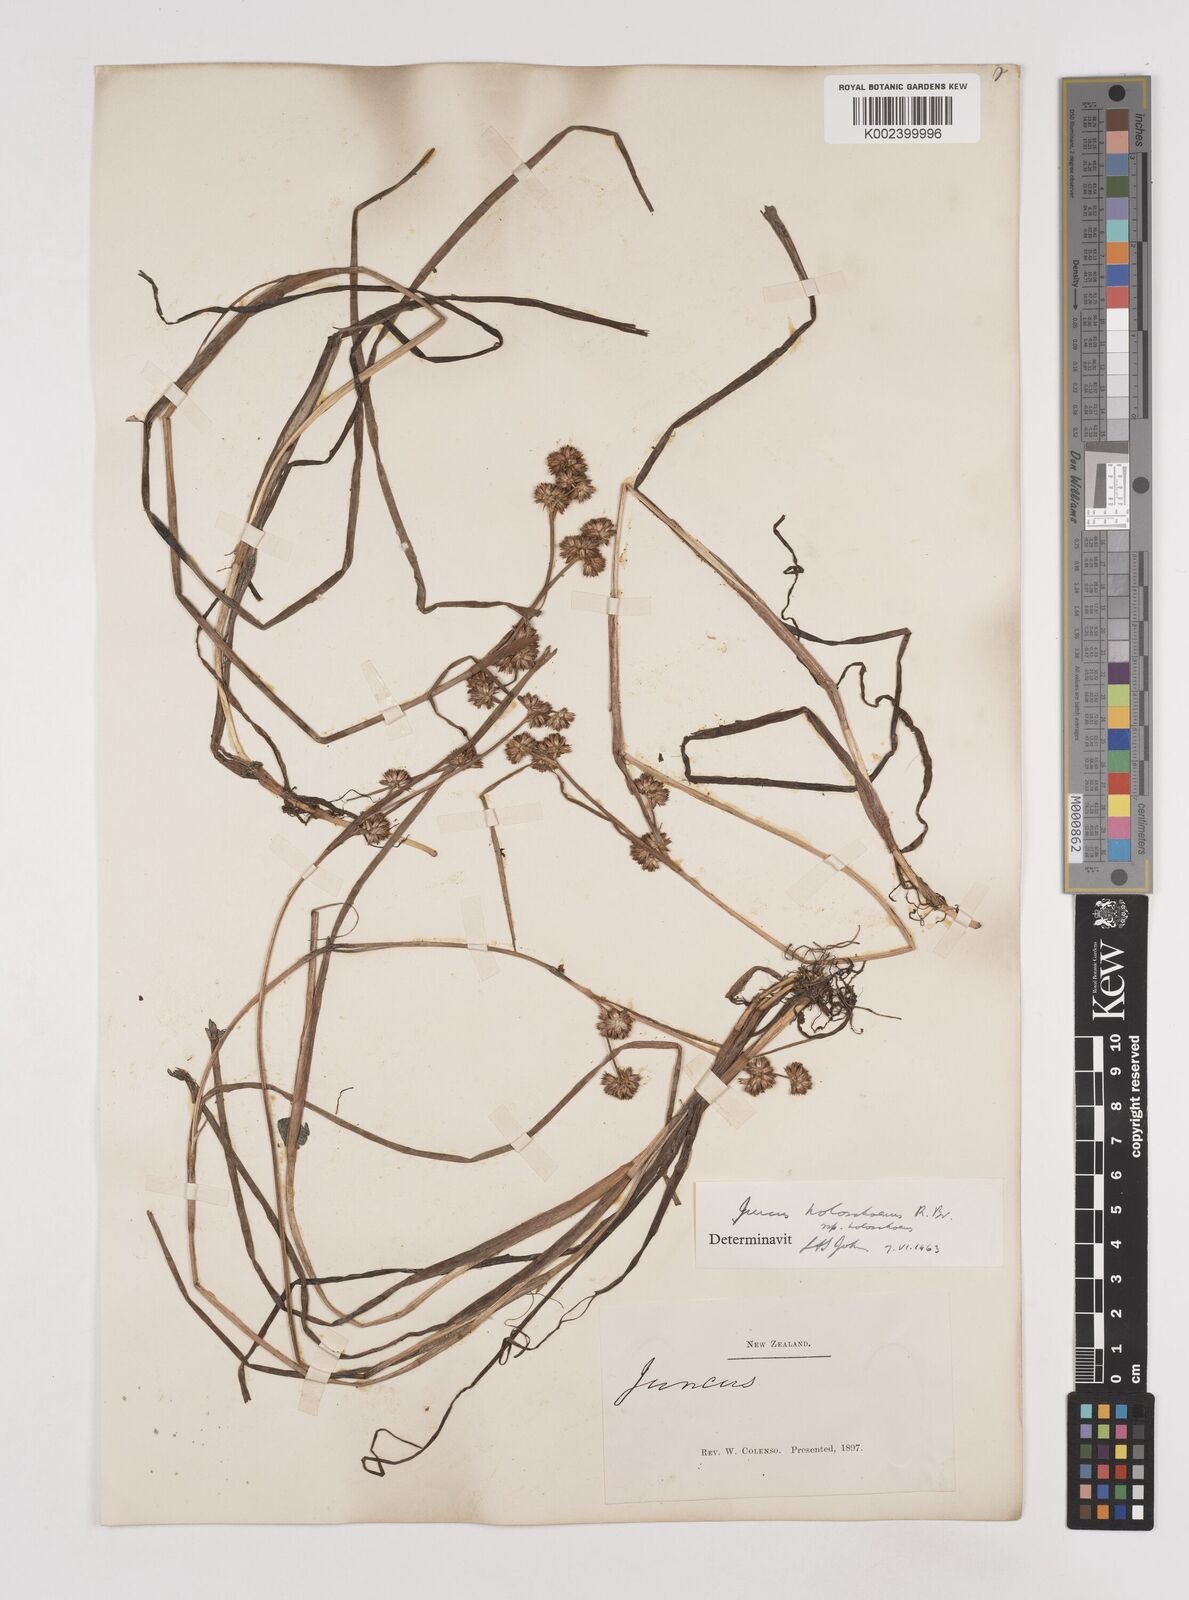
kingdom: Plantae
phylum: Tracheophyta
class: Liliopsida
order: Poales
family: Juncaceae
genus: Juncus
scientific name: Juncus holoschoenus
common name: Joint-leaf rush
